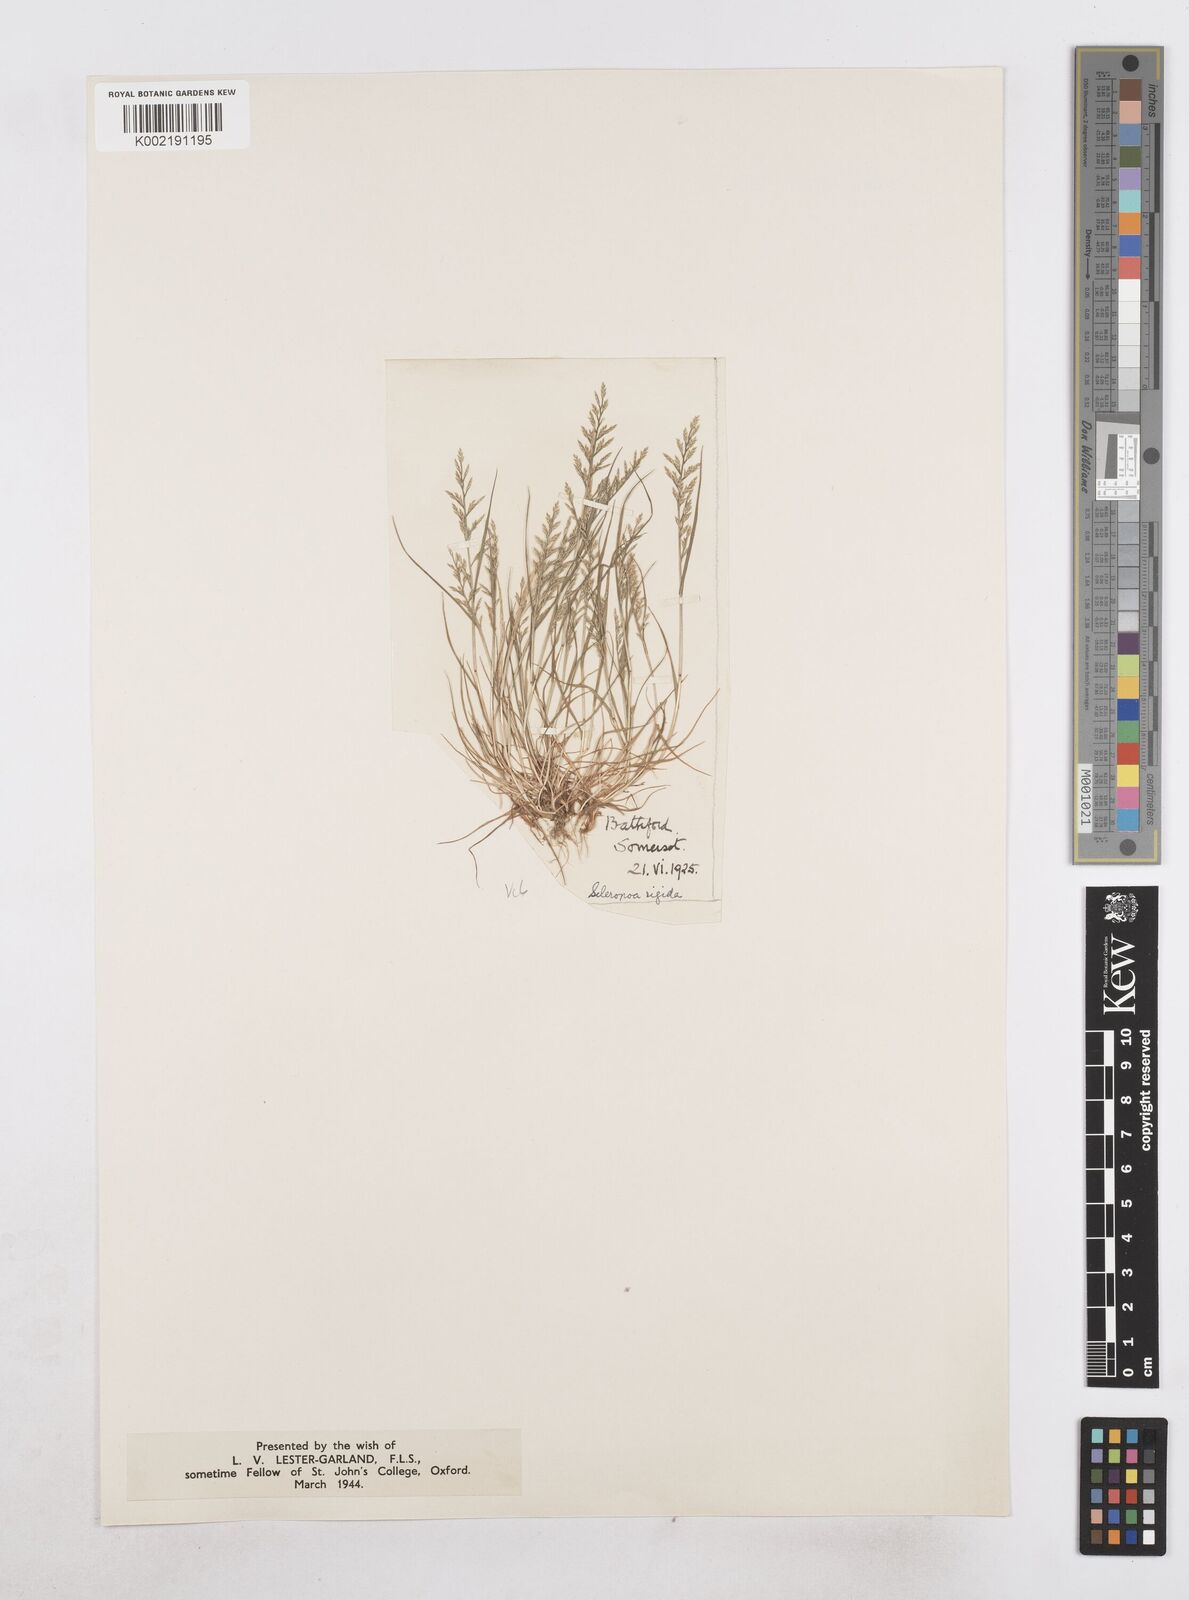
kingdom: Plantae
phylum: Tracheophyta
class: Liliopsida
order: Poales
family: Poaceae
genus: Catapodium
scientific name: Catapodium rigidum
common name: Fern-grass
